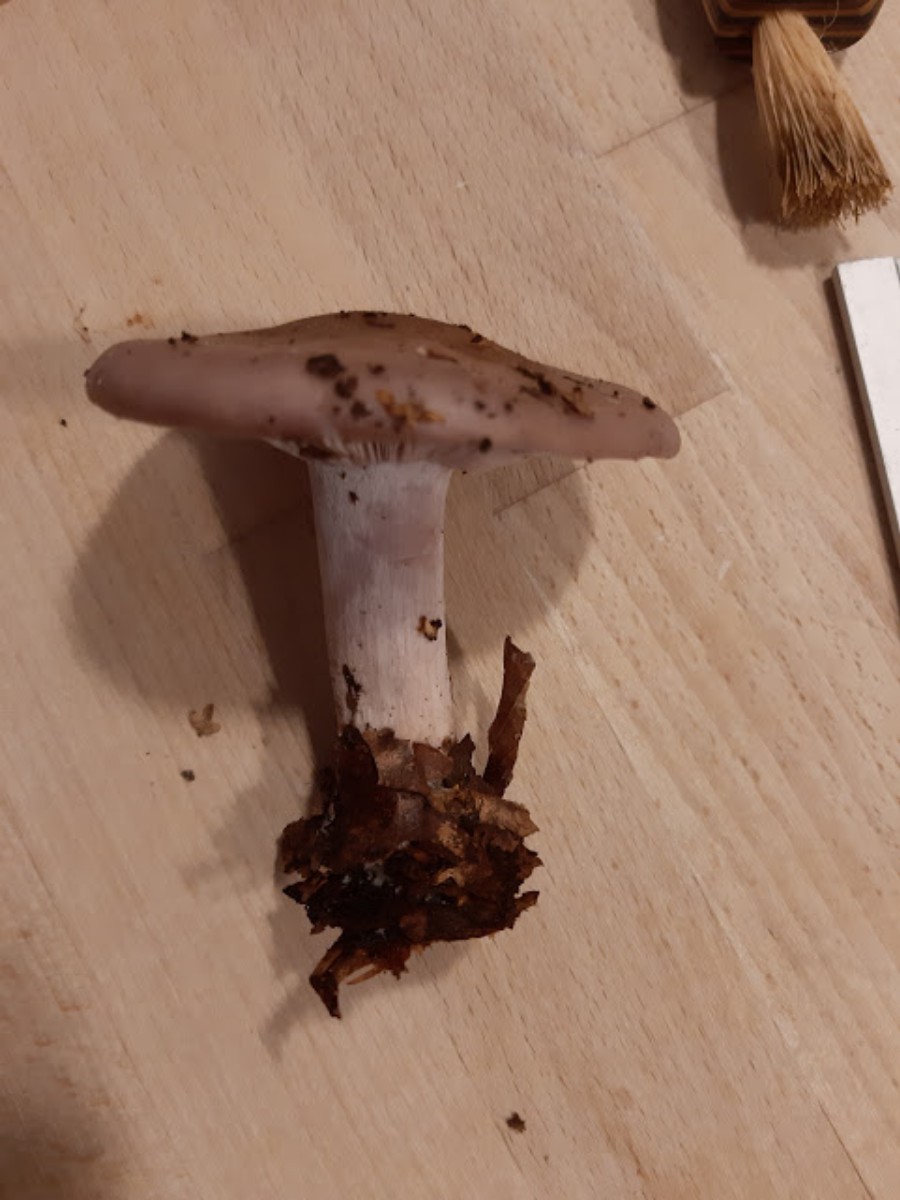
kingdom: Fungi
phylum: Basidiomycota
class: Agaricomycetes
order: Agaricales
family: Tricholomataceae
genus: Lepista
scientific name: Lepista nuda
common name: violet hekseringshat
